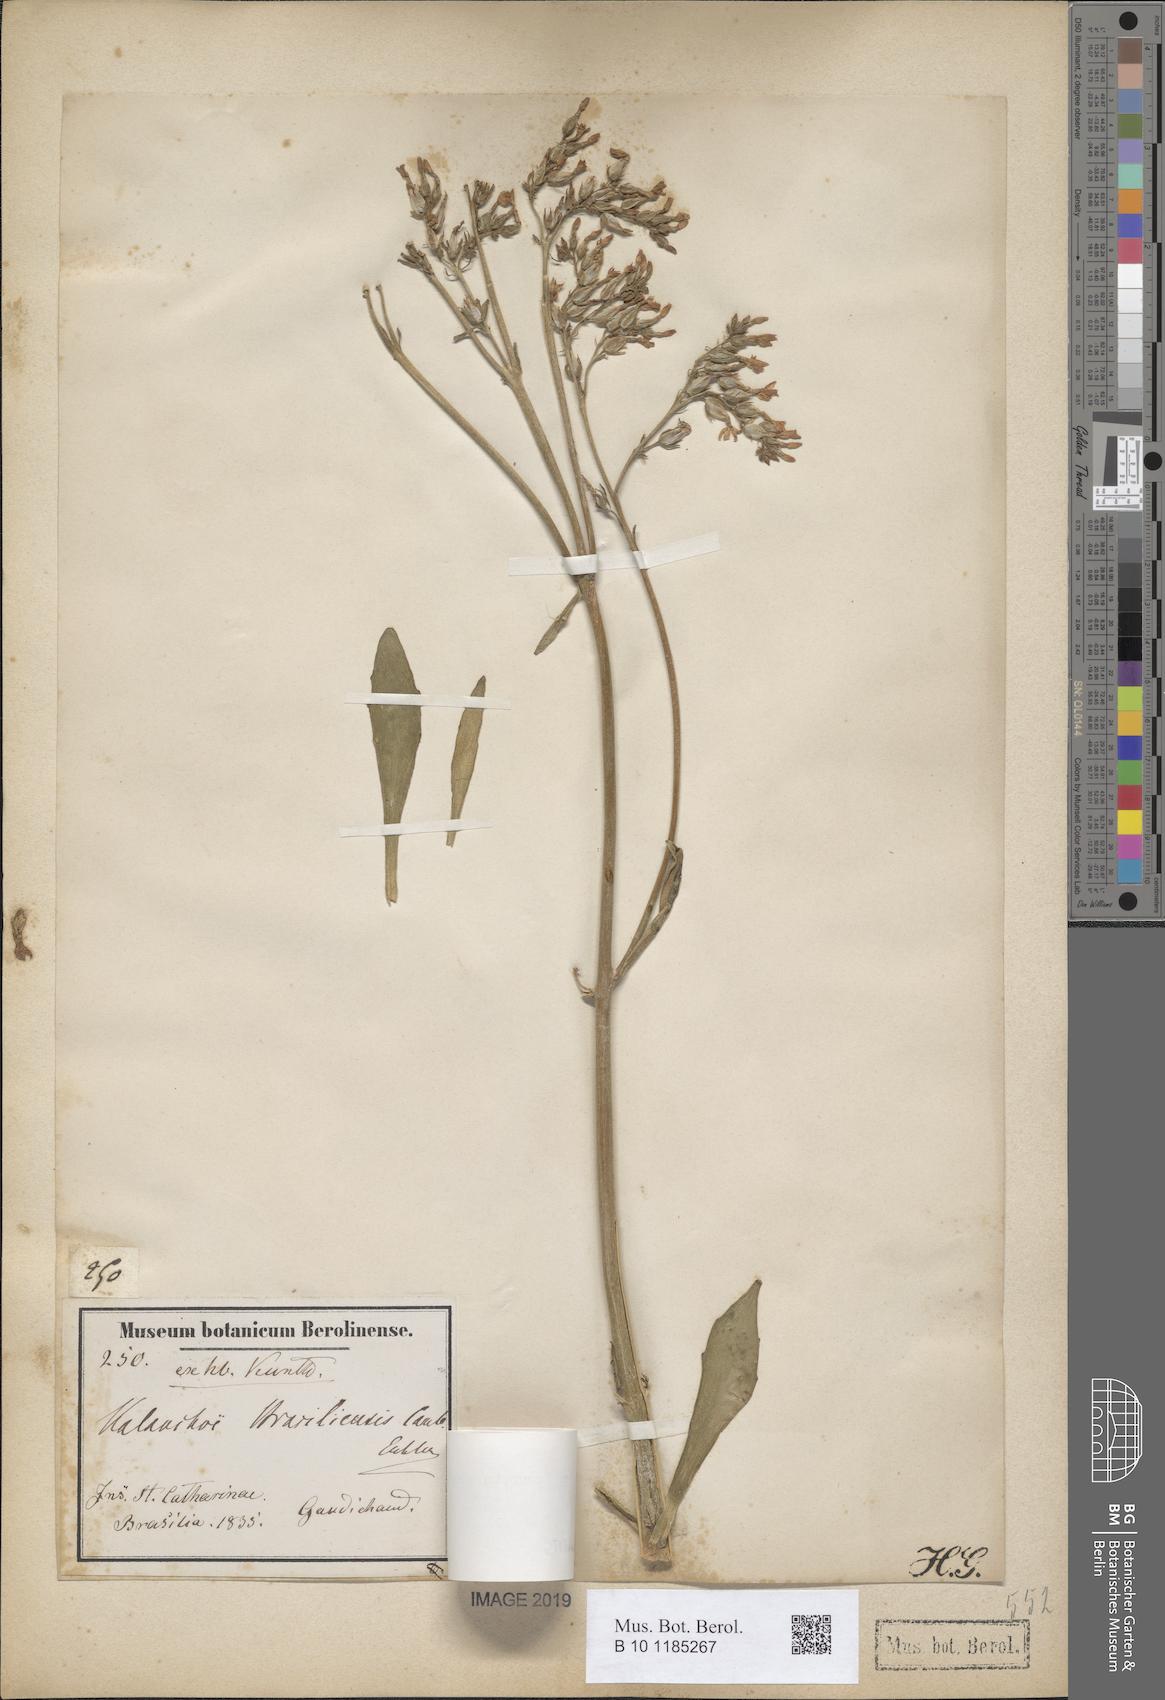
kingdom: Plantae
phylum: Tracheophyta
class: Magnoliopsida
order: Saxifragales
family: Crassulaceae
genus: Kalanchoe
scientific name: Kalanchoe crenata
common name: Neverdie
